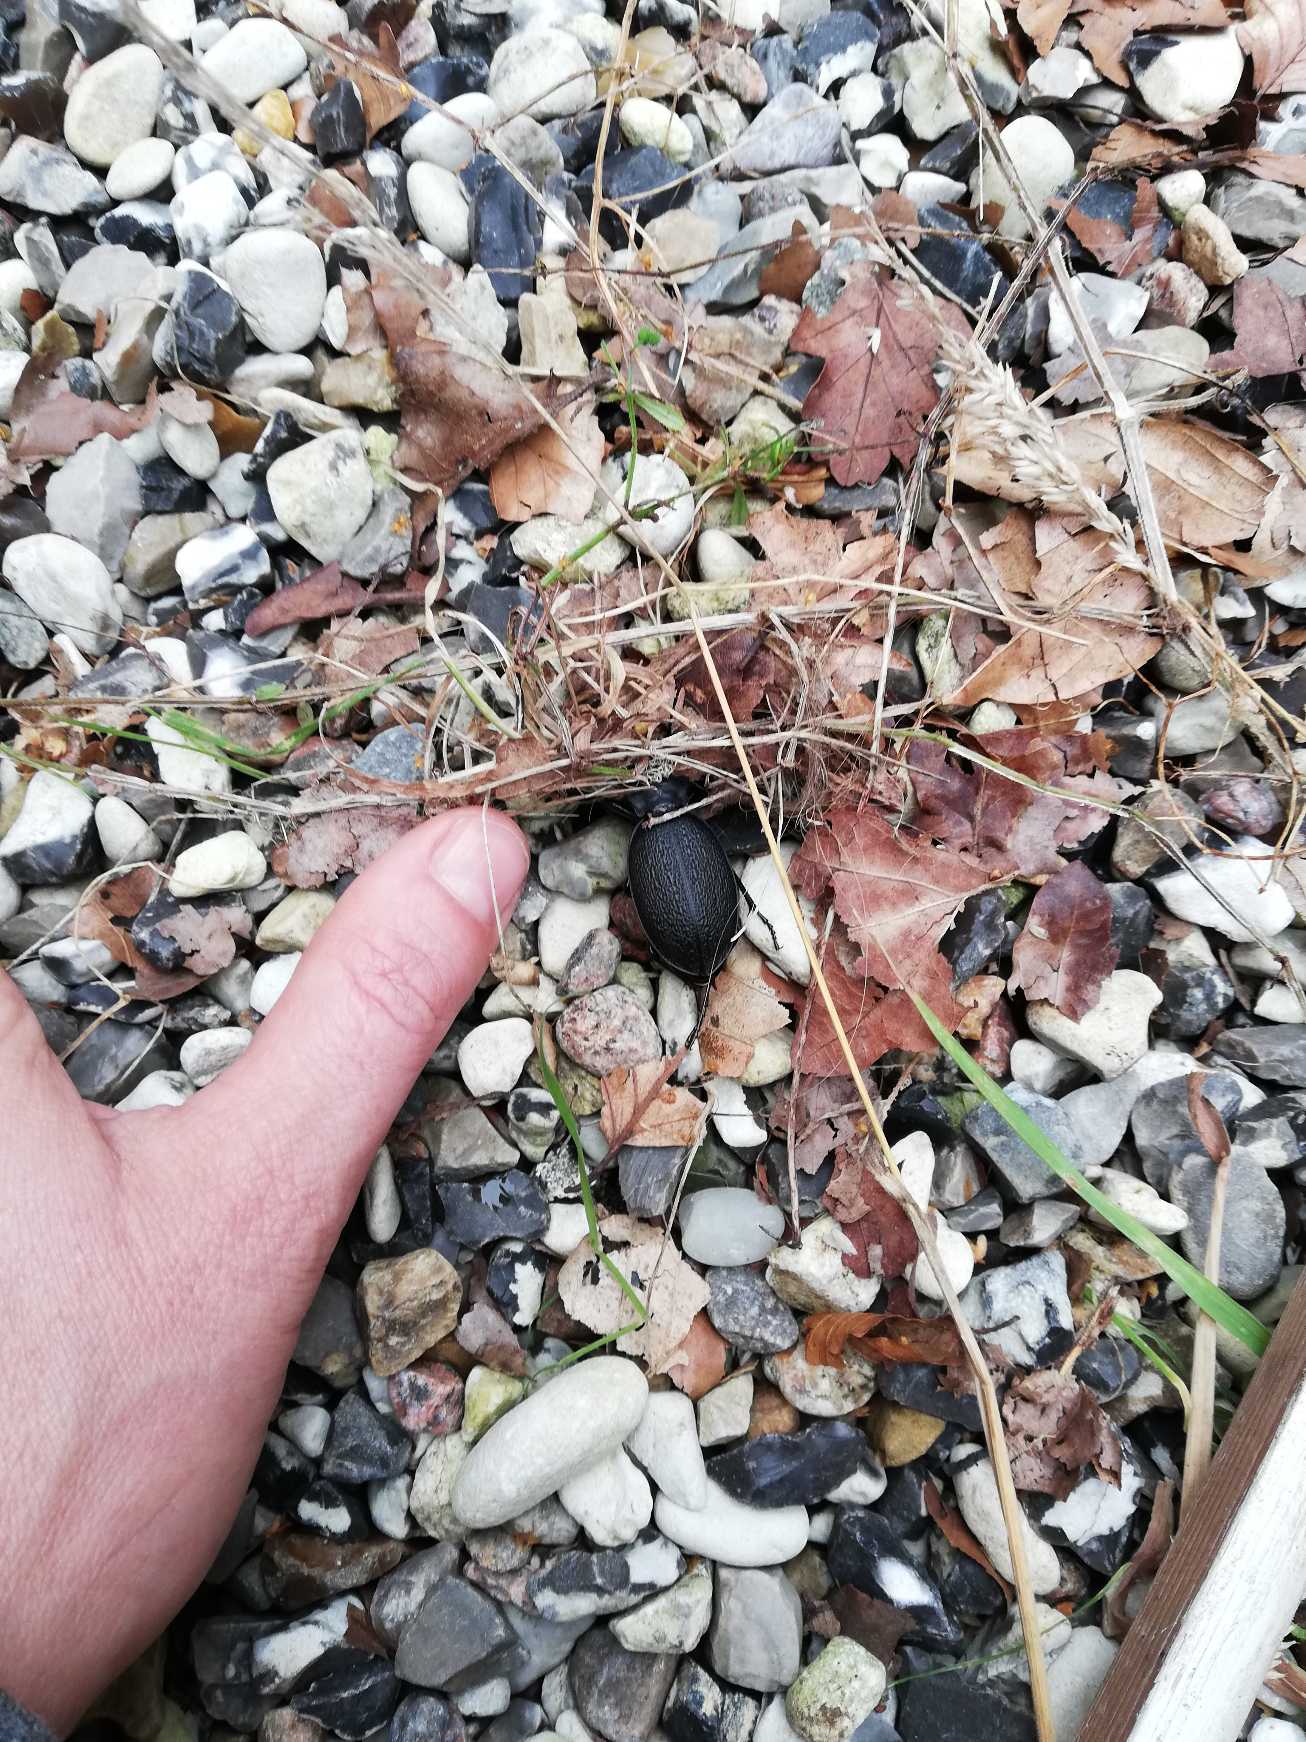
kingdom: Animalia
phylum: Arthropoda
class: Insecta
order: Coleoptera
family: Carabidae
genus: Carabus
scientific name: Carabus coriaceus
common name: Læderløber
